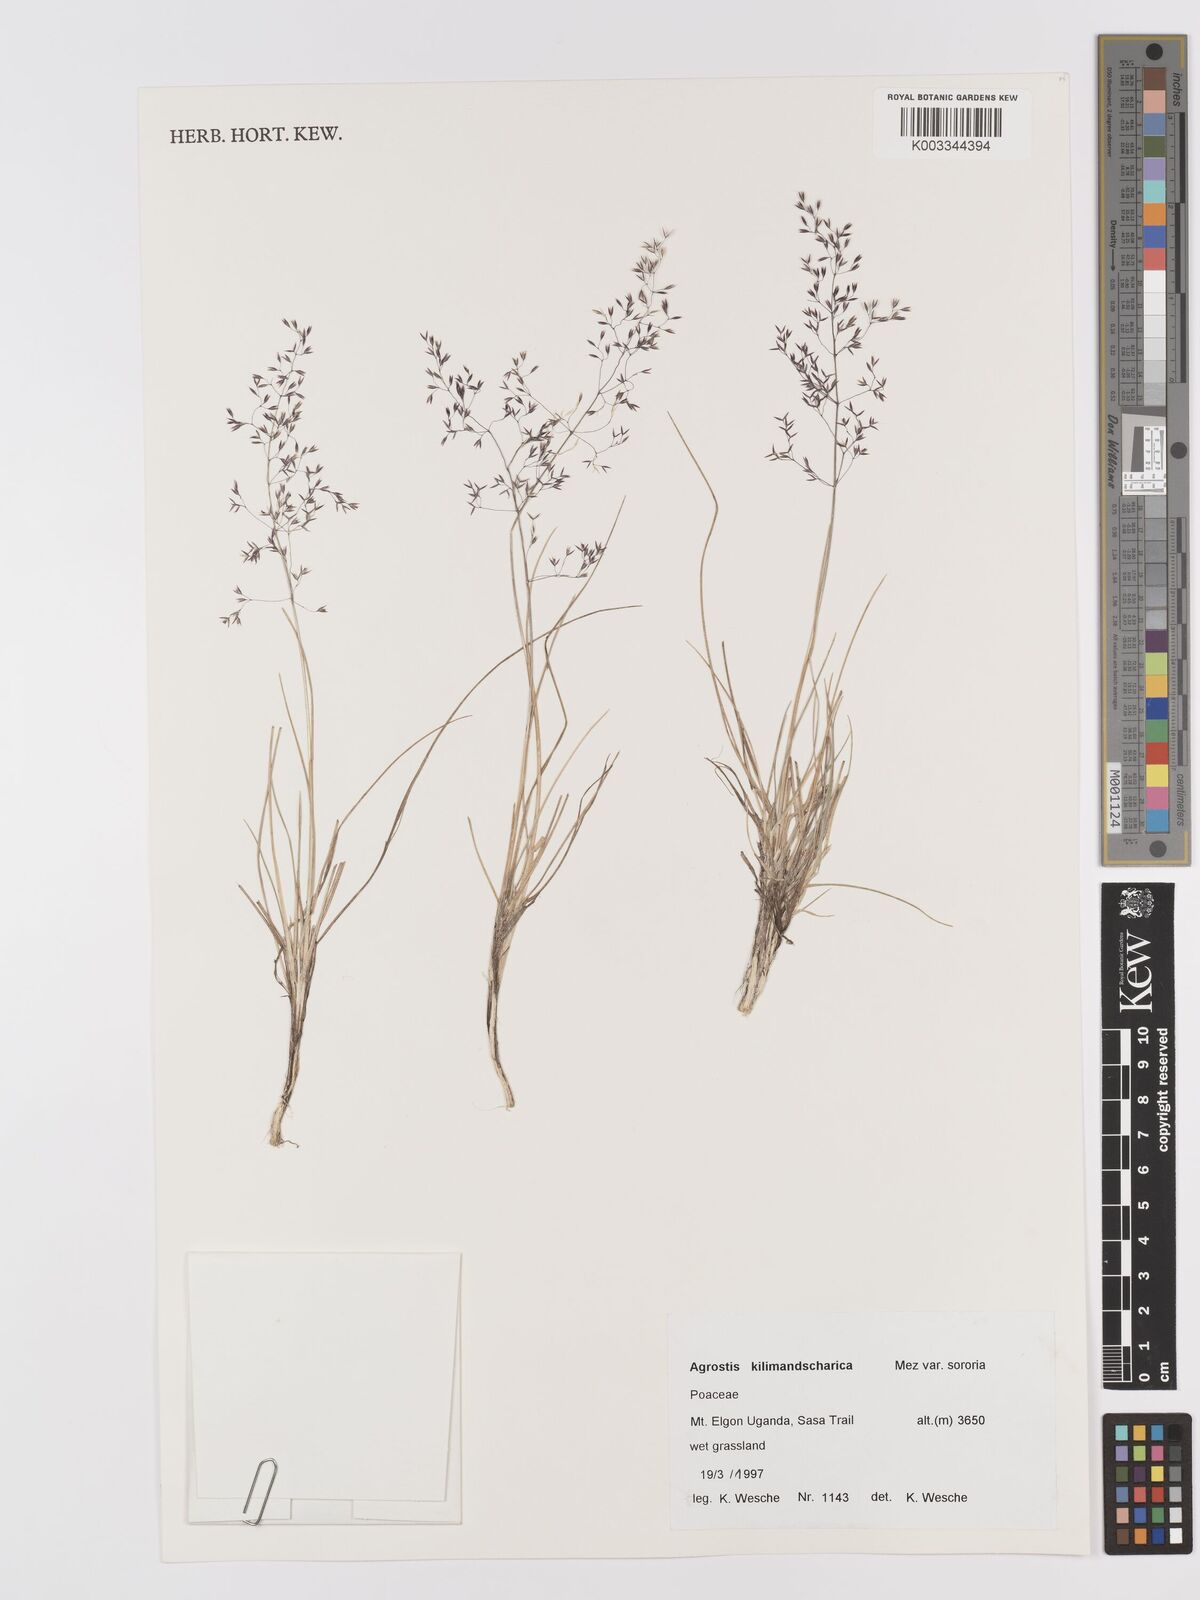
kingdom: Plantae
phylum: Tracheophyta
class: Liliopsida
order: Poales
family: Poaceae
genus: Agrostis
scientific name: Agrostis kilimandscharica
